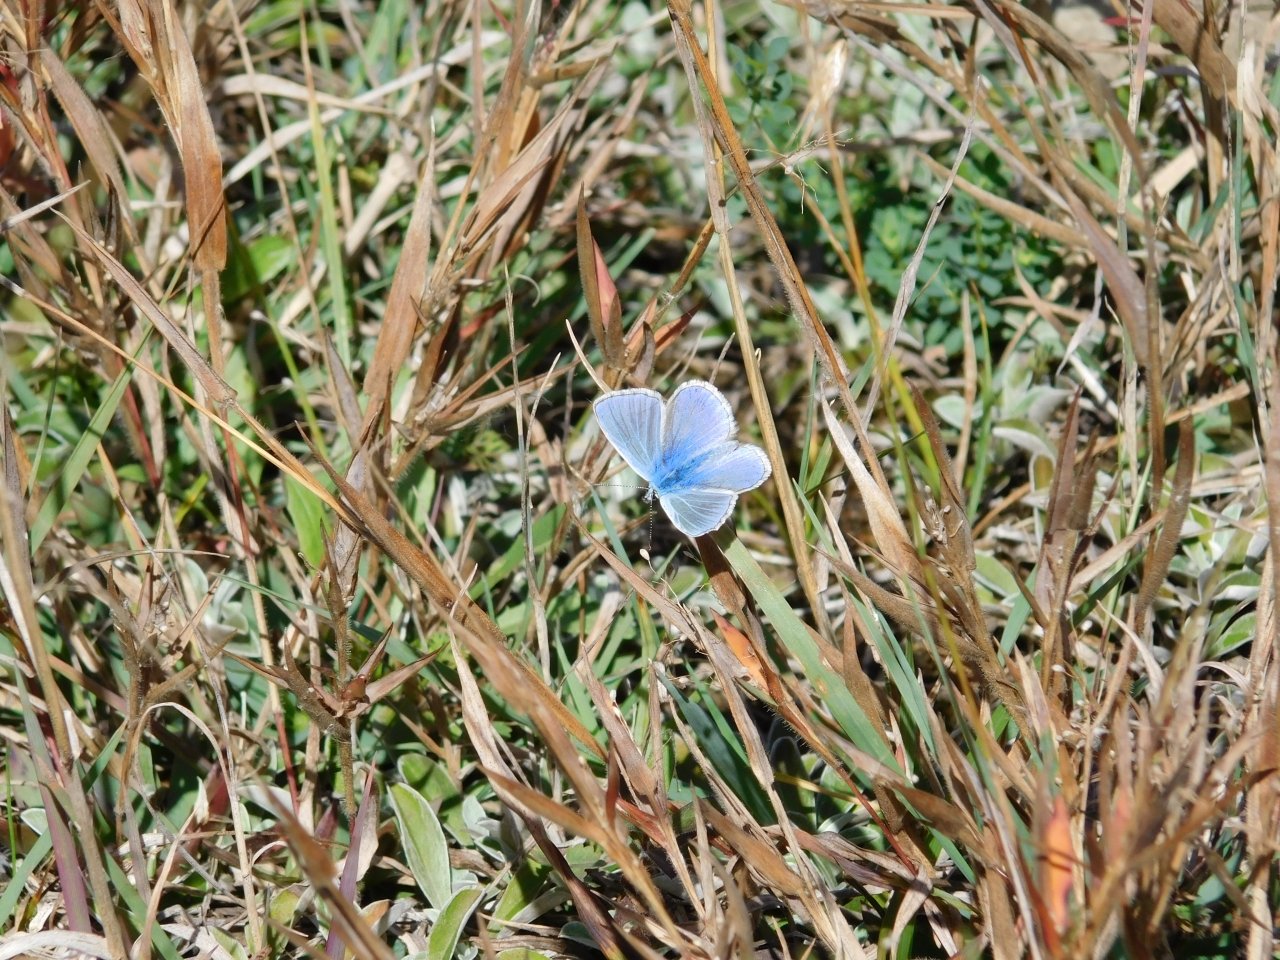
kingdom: Animalia
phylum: Arthropoda
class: Insecta
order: Lepidoptera
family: Lycaenidae
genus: Polyommatus
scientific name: Polyommatus icarus
